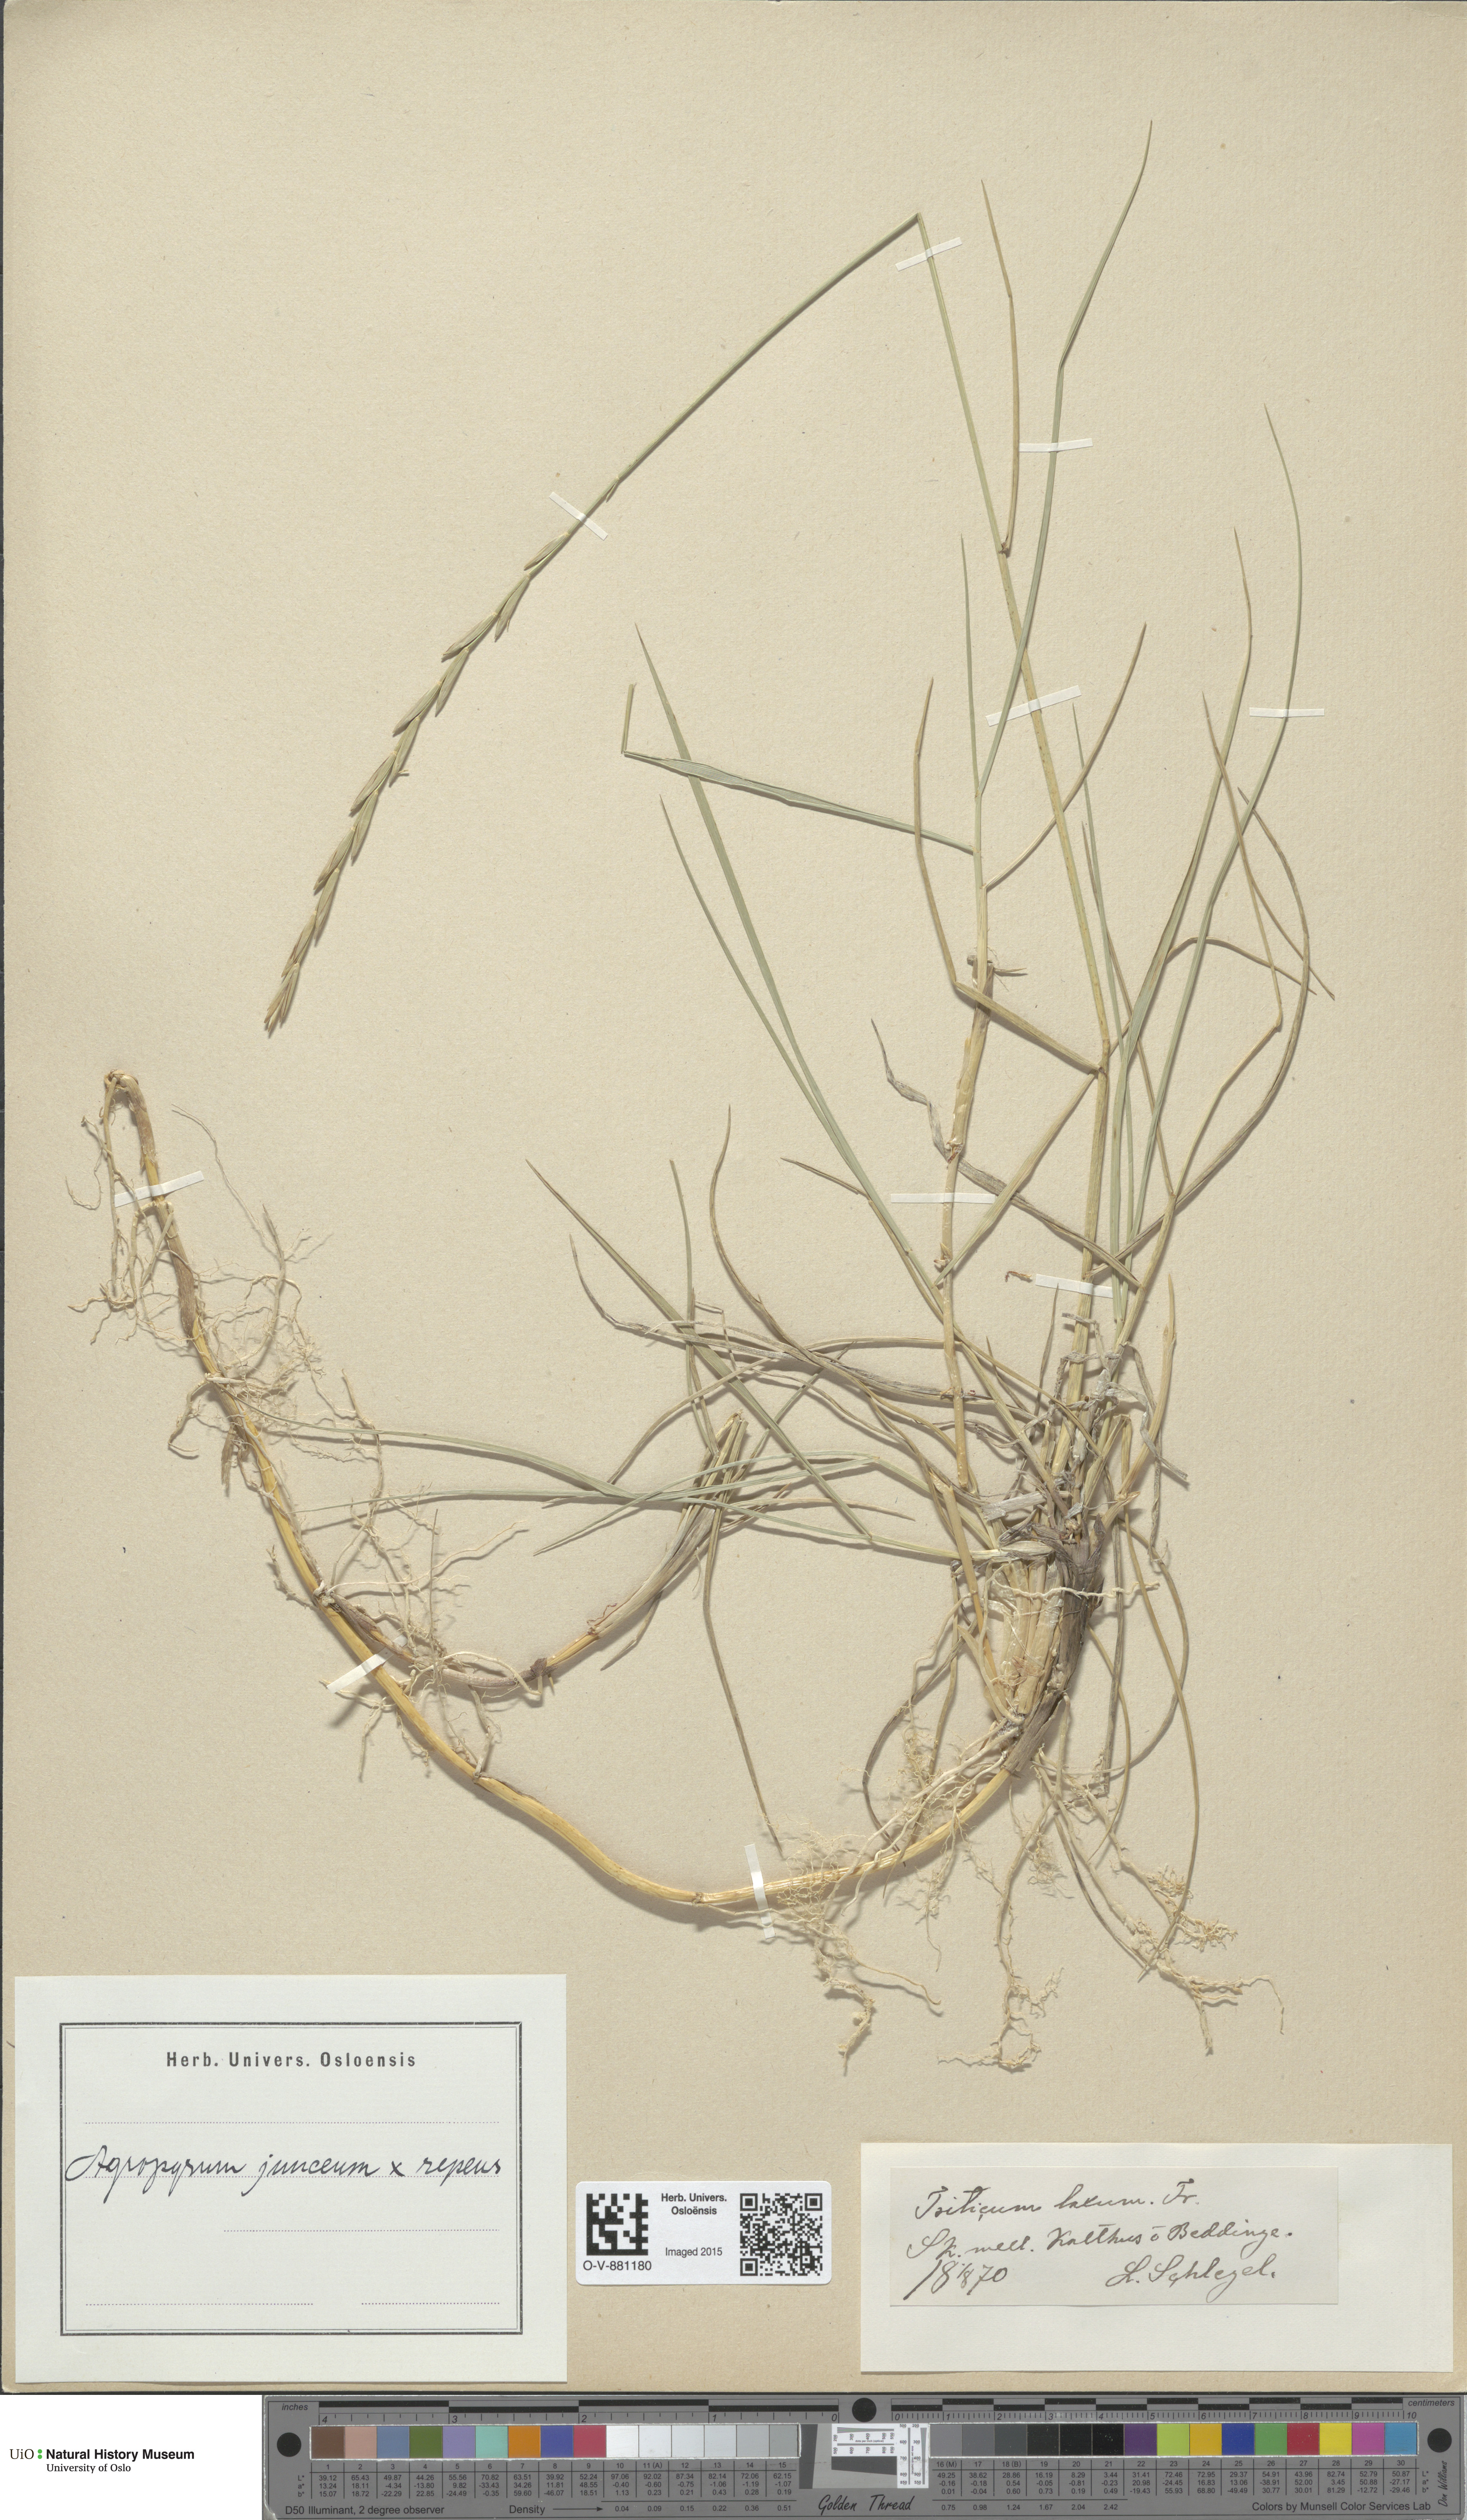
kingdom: Plantae
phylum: Tracheophyta
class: Liliopsida
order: Poales
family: Poaceae
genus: Elymus
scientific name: Elymus
